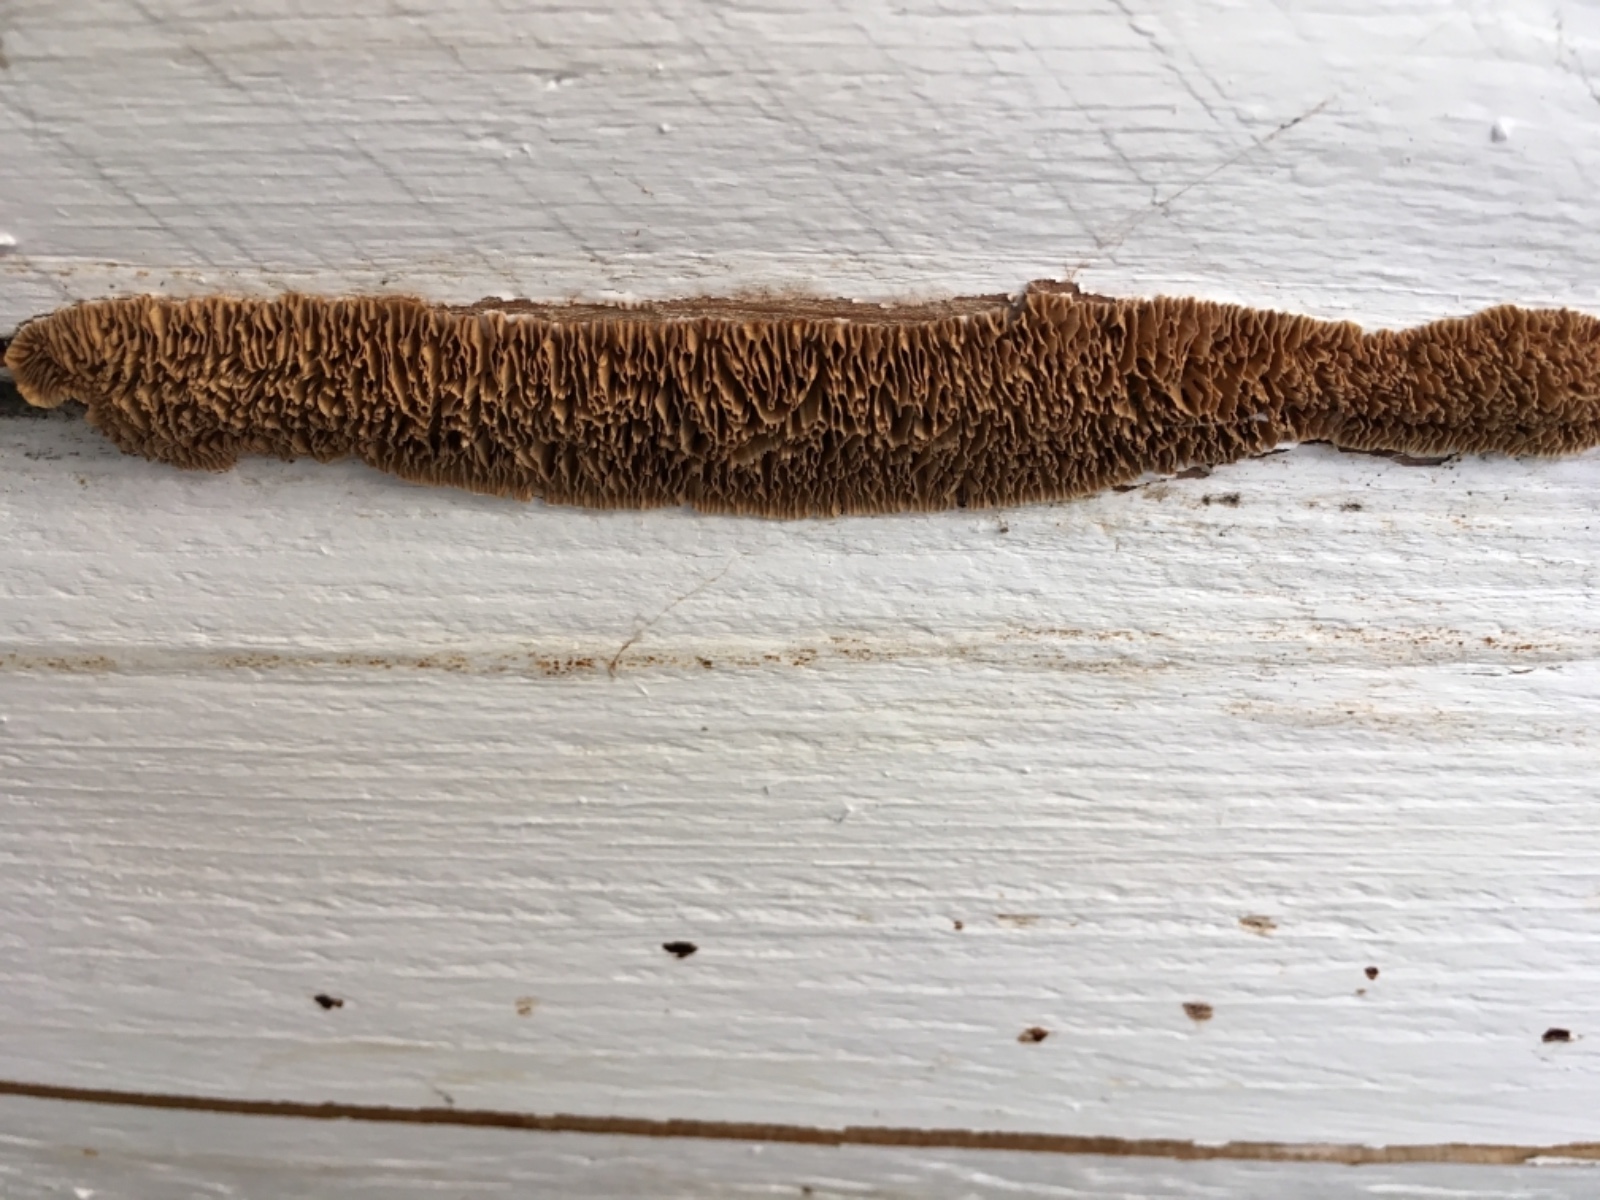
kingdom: Fungi
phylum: Basidiomycota
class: Agaricomycetes
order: Gloeophyllales
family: Gloeophyllaceae
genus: Gloeophyllum
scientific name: Gloeophyllum sepiarium
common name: fyrre-korkhat
